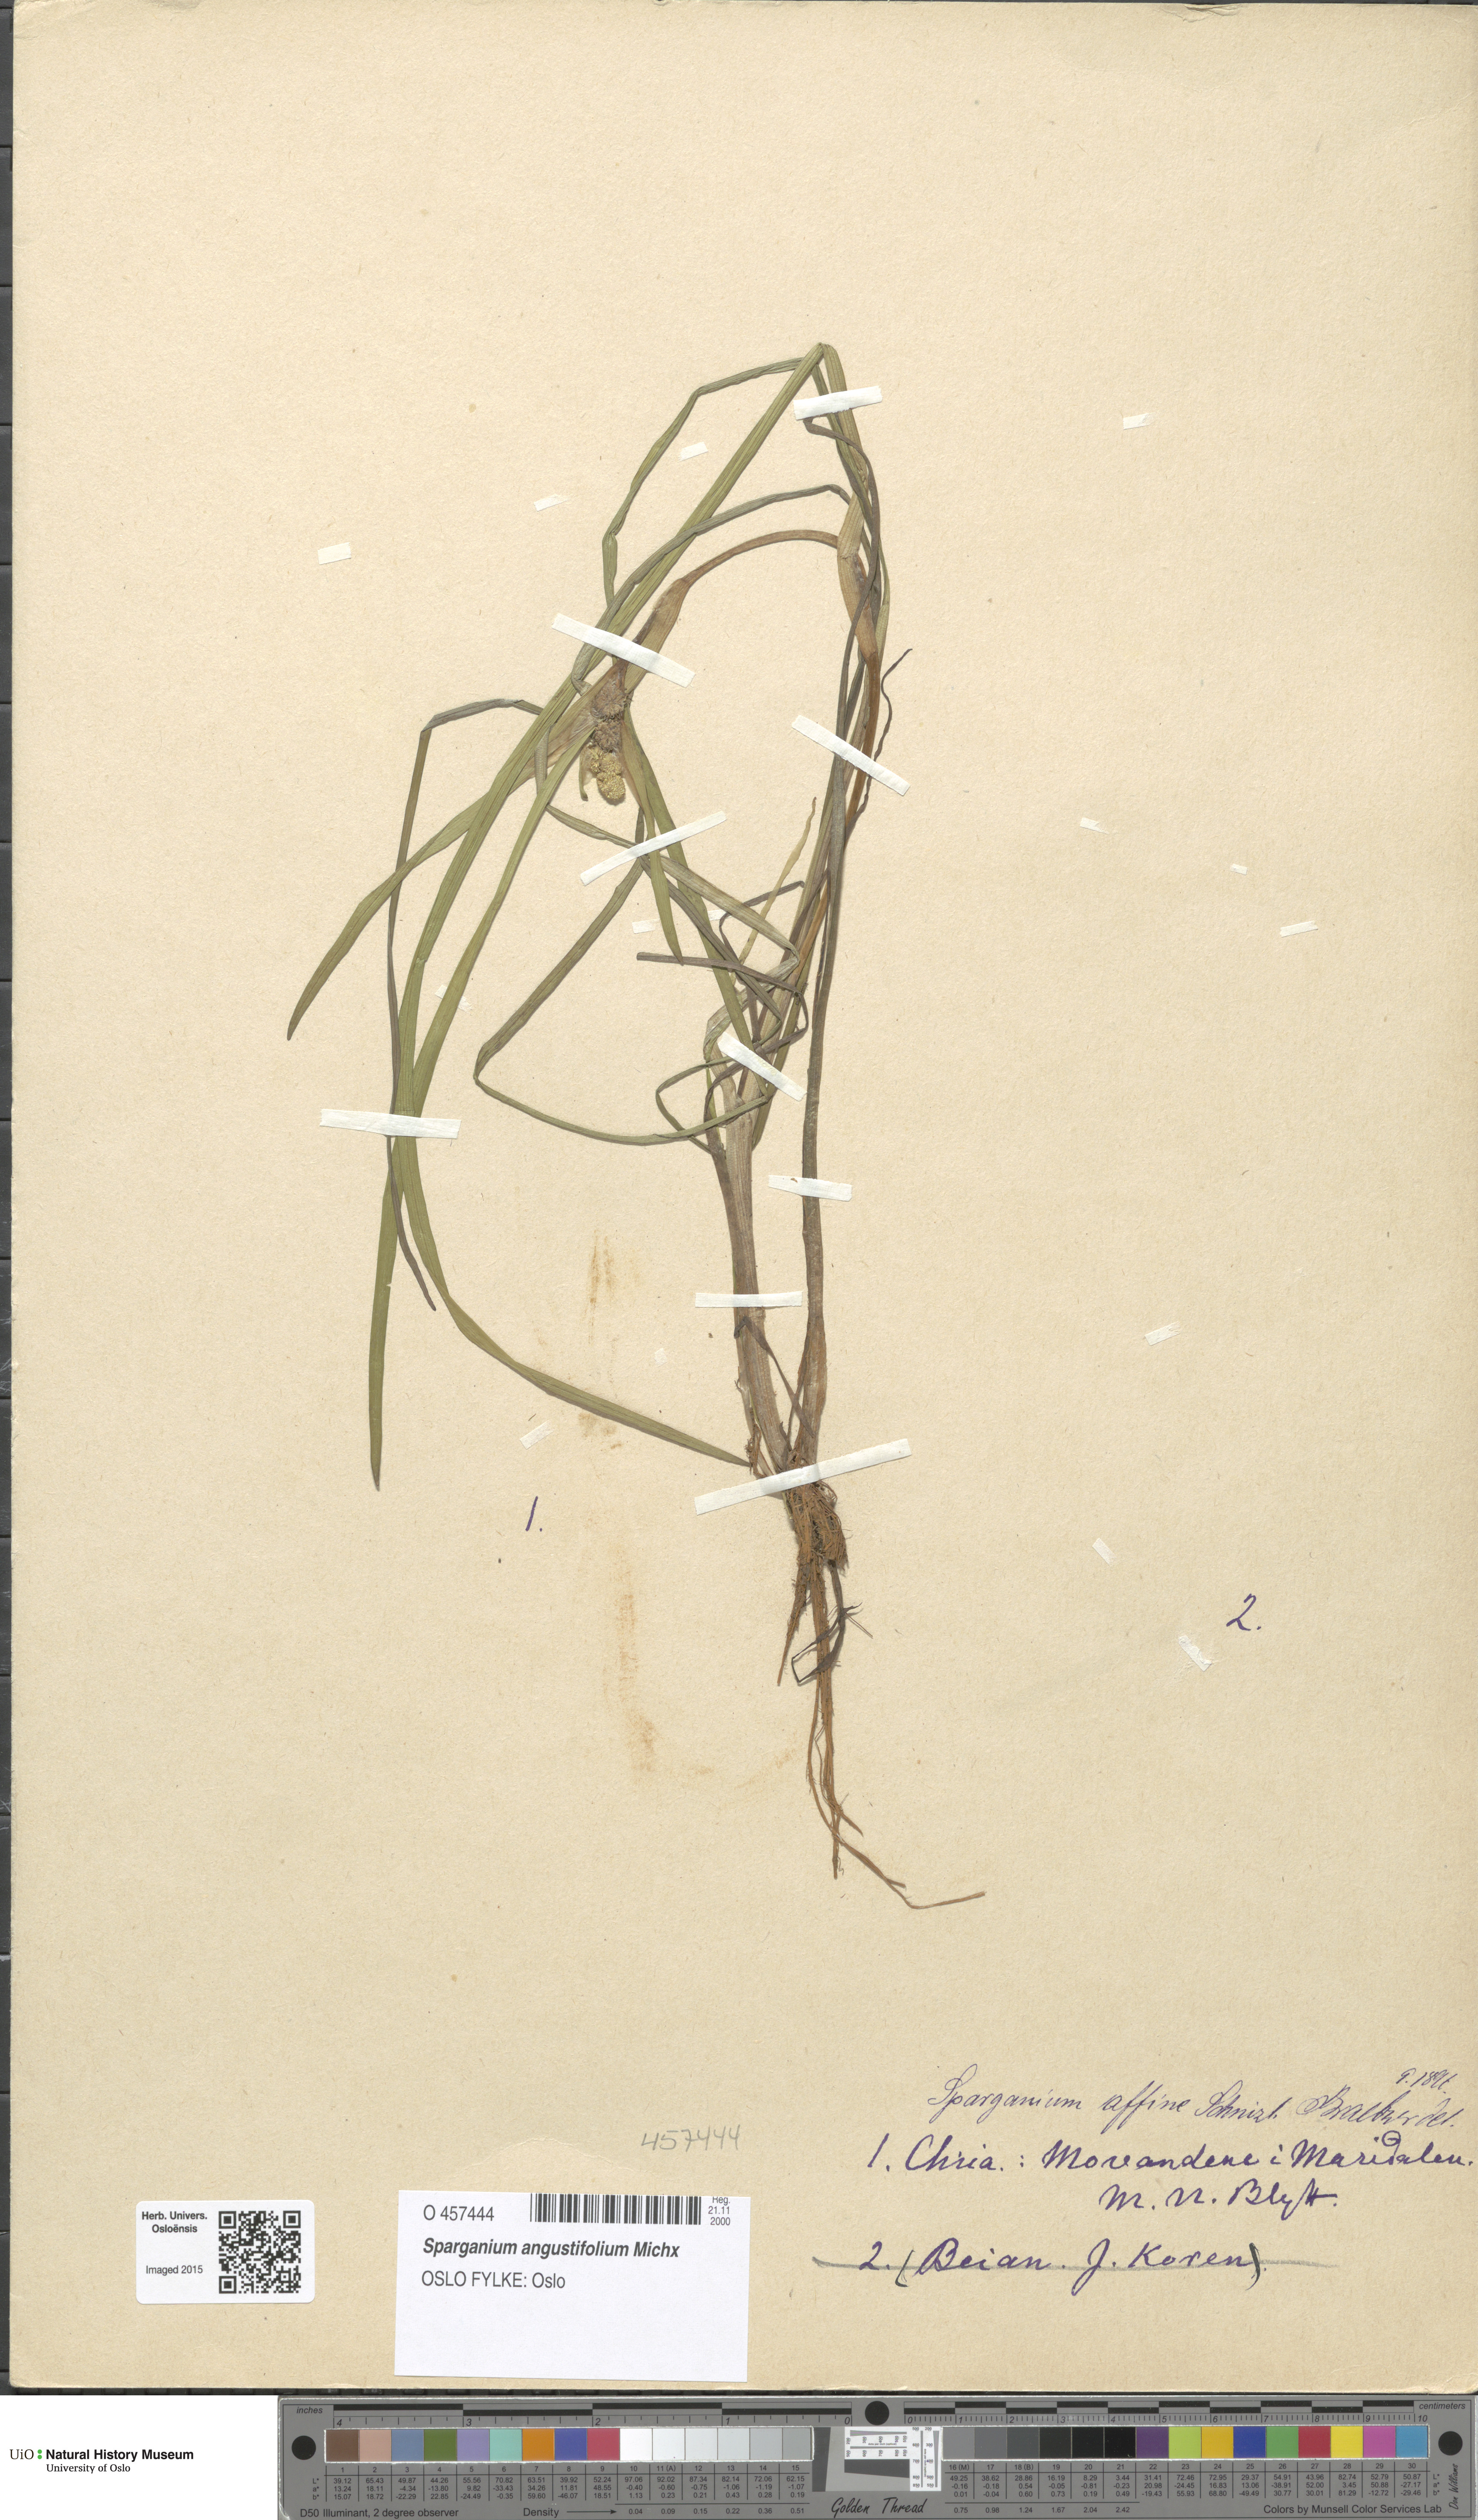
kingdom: Plantae
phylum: Tracheophyta
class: Liliopsida
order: Poales
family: Typhaceae
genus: Sparganium
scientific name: Sparganium angustifolium
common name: Floating bur-reed
